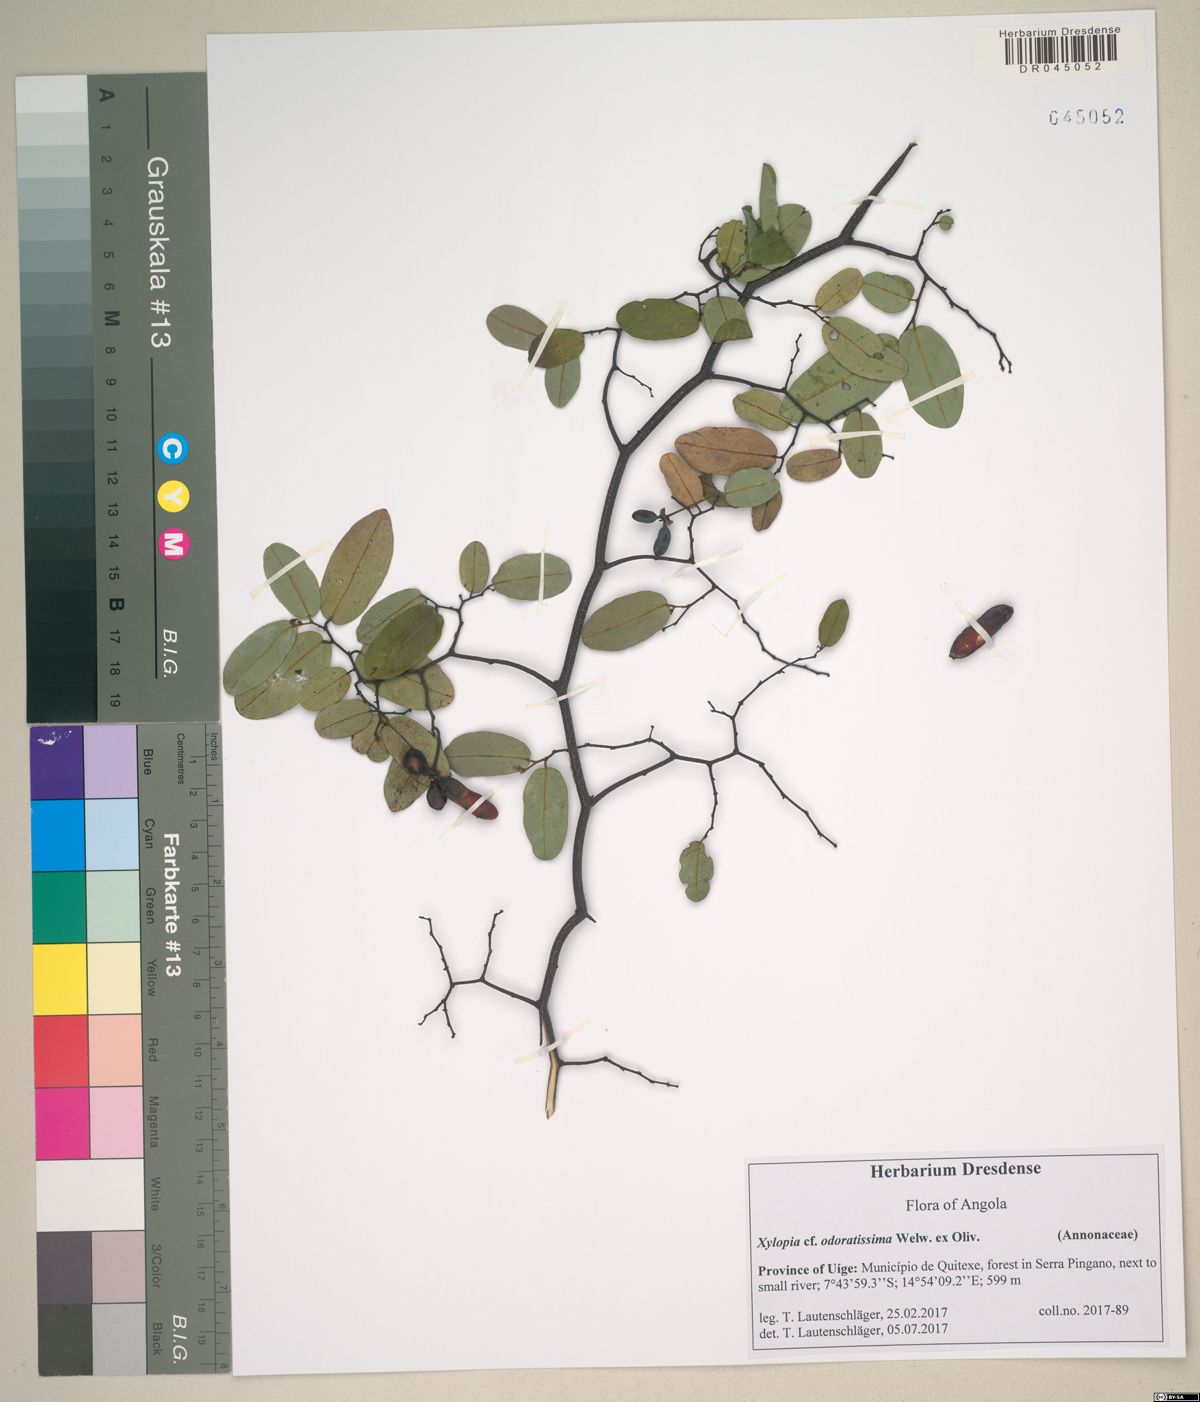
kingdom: Plantae
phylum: Tracheophyta
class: Magnoliopsida
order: Magnoliales
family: Annonaceae
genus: Monanthotaxis
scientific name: Monanthotaxis parvifolia
